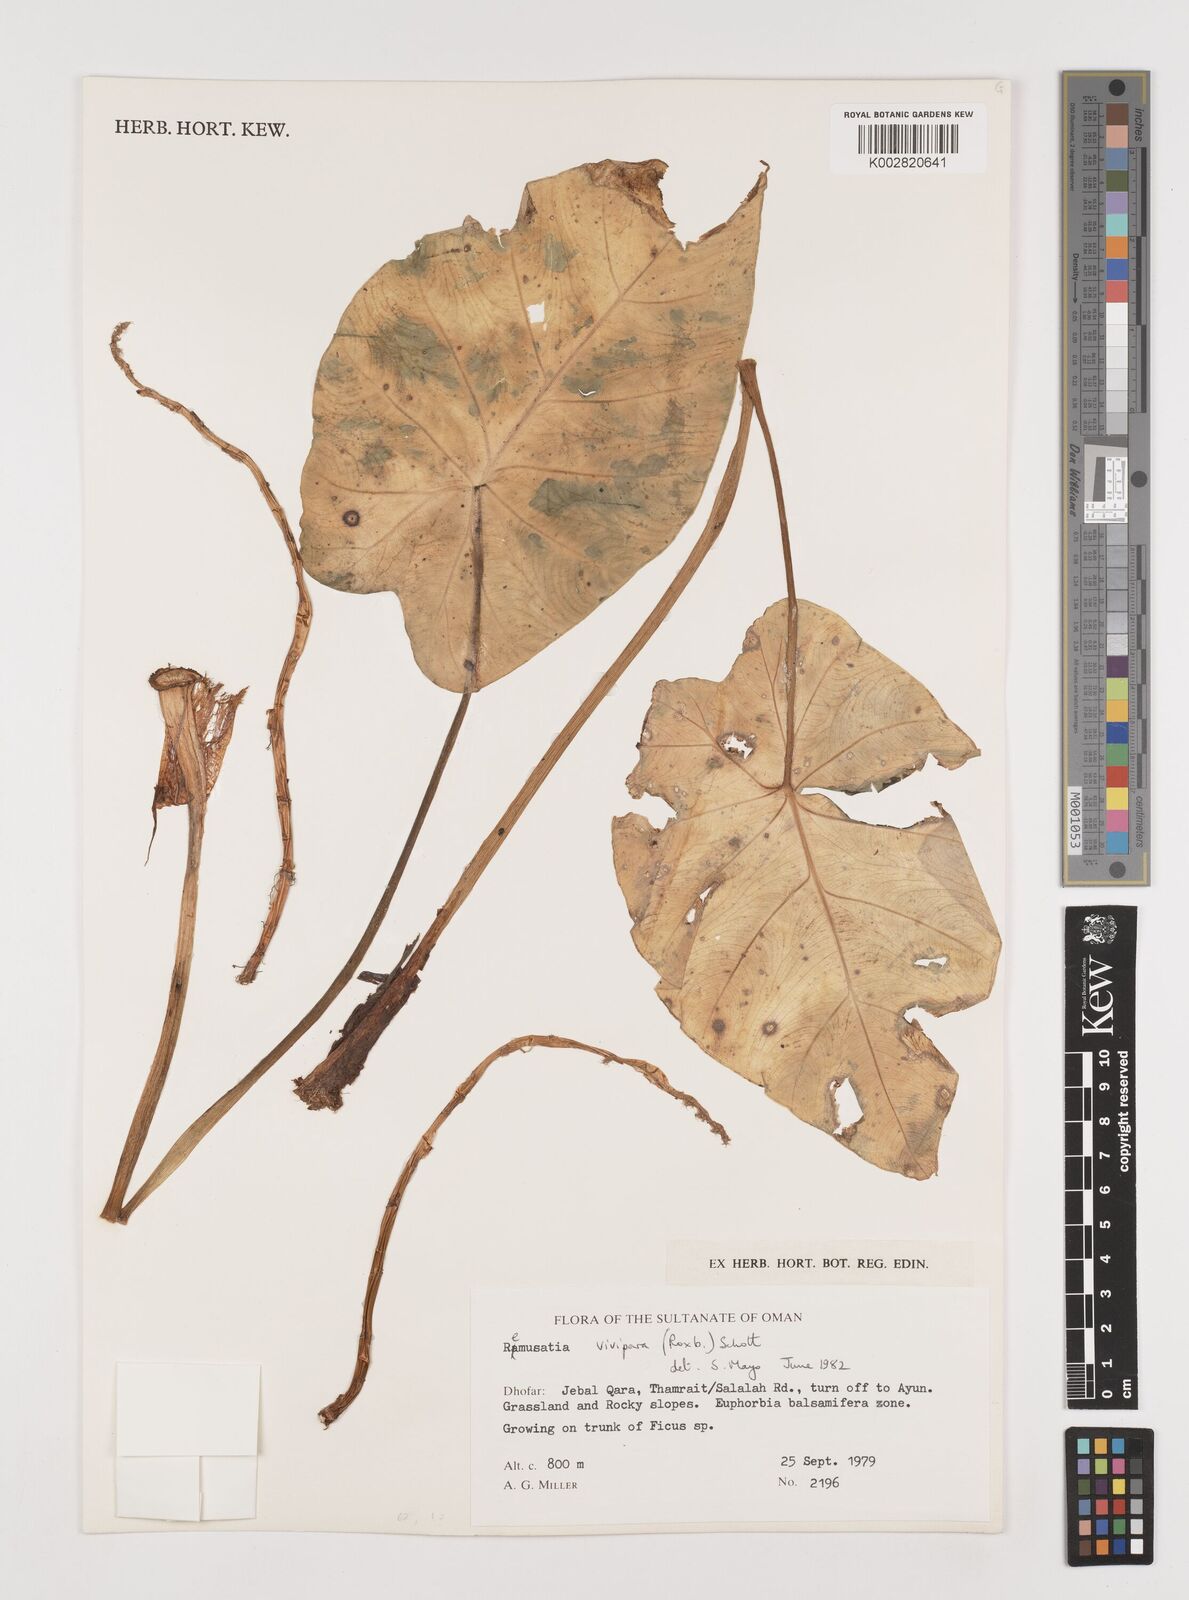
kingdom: Plantae
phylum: Tracheophyta
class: Liliopsida
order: Alismatales
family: Araceae
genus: Remusatia
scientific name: Remusatia vivipara
